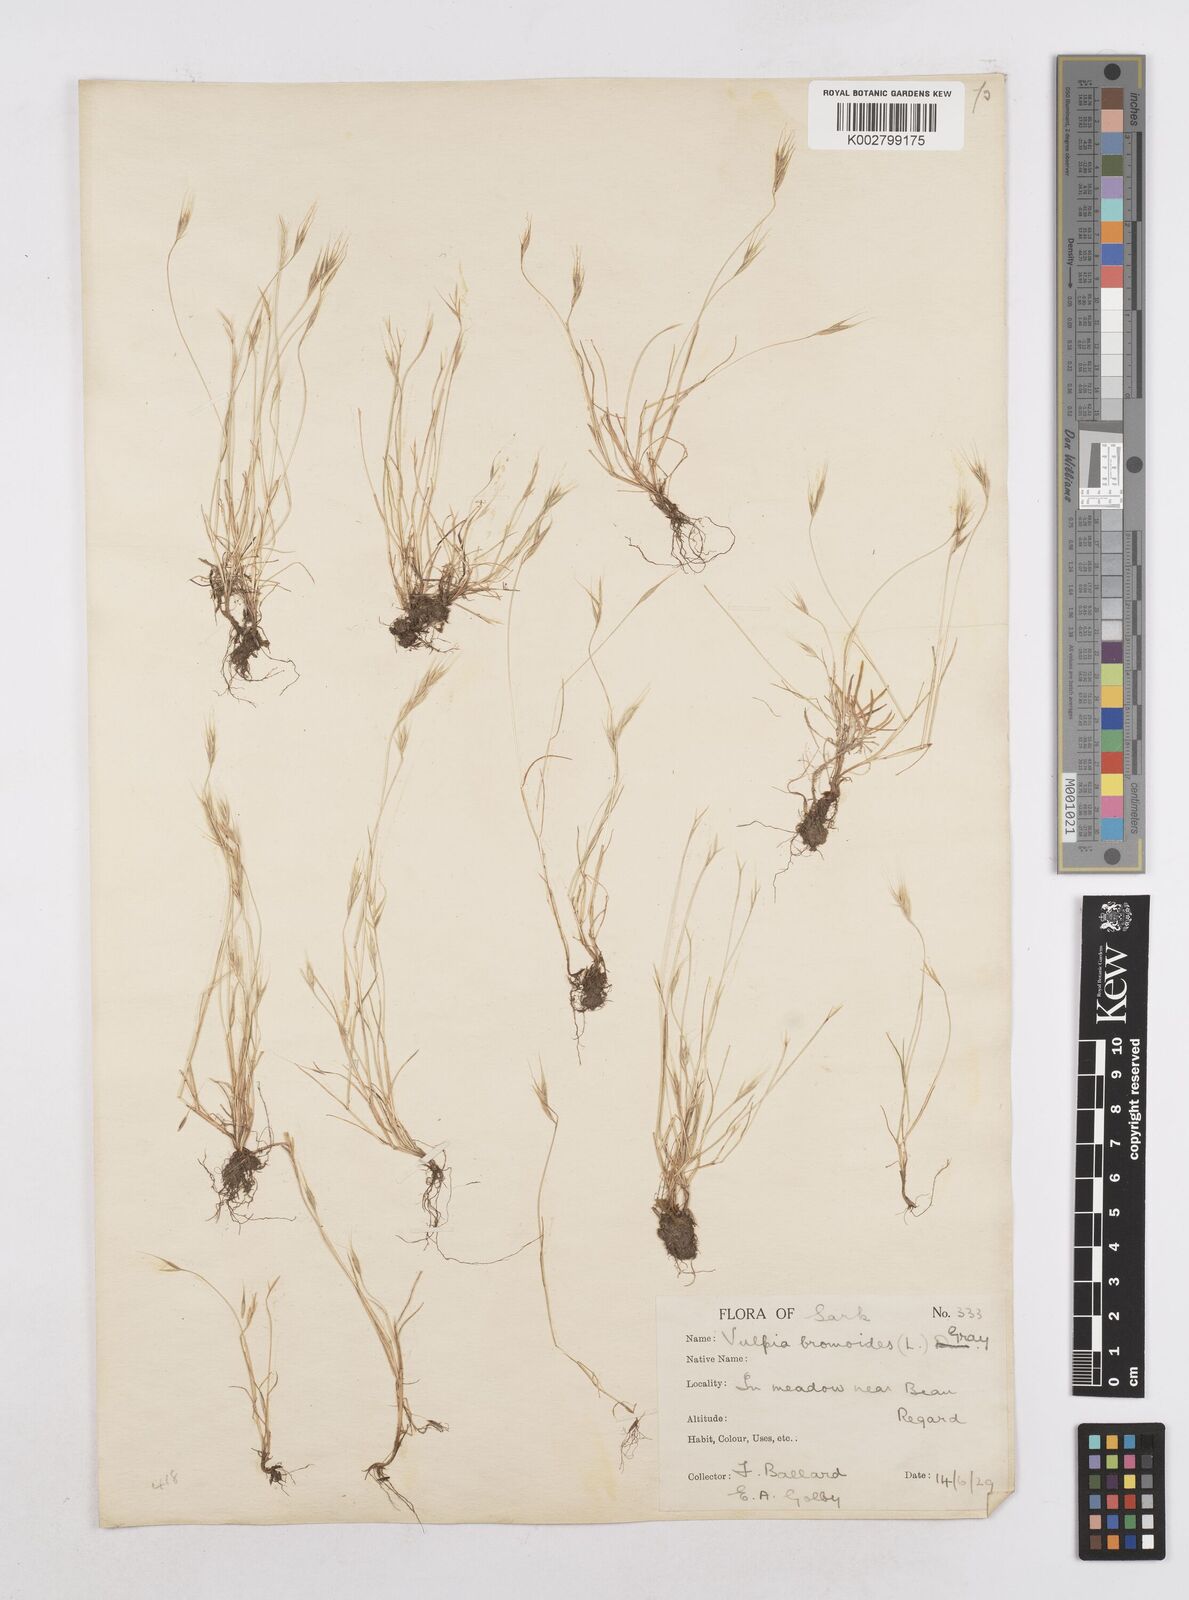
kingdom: Plantae
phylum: Tracheophyta
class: Liliopsida
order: Poales
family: Poaceae
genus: Festuca
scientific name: Festuca bromoides
